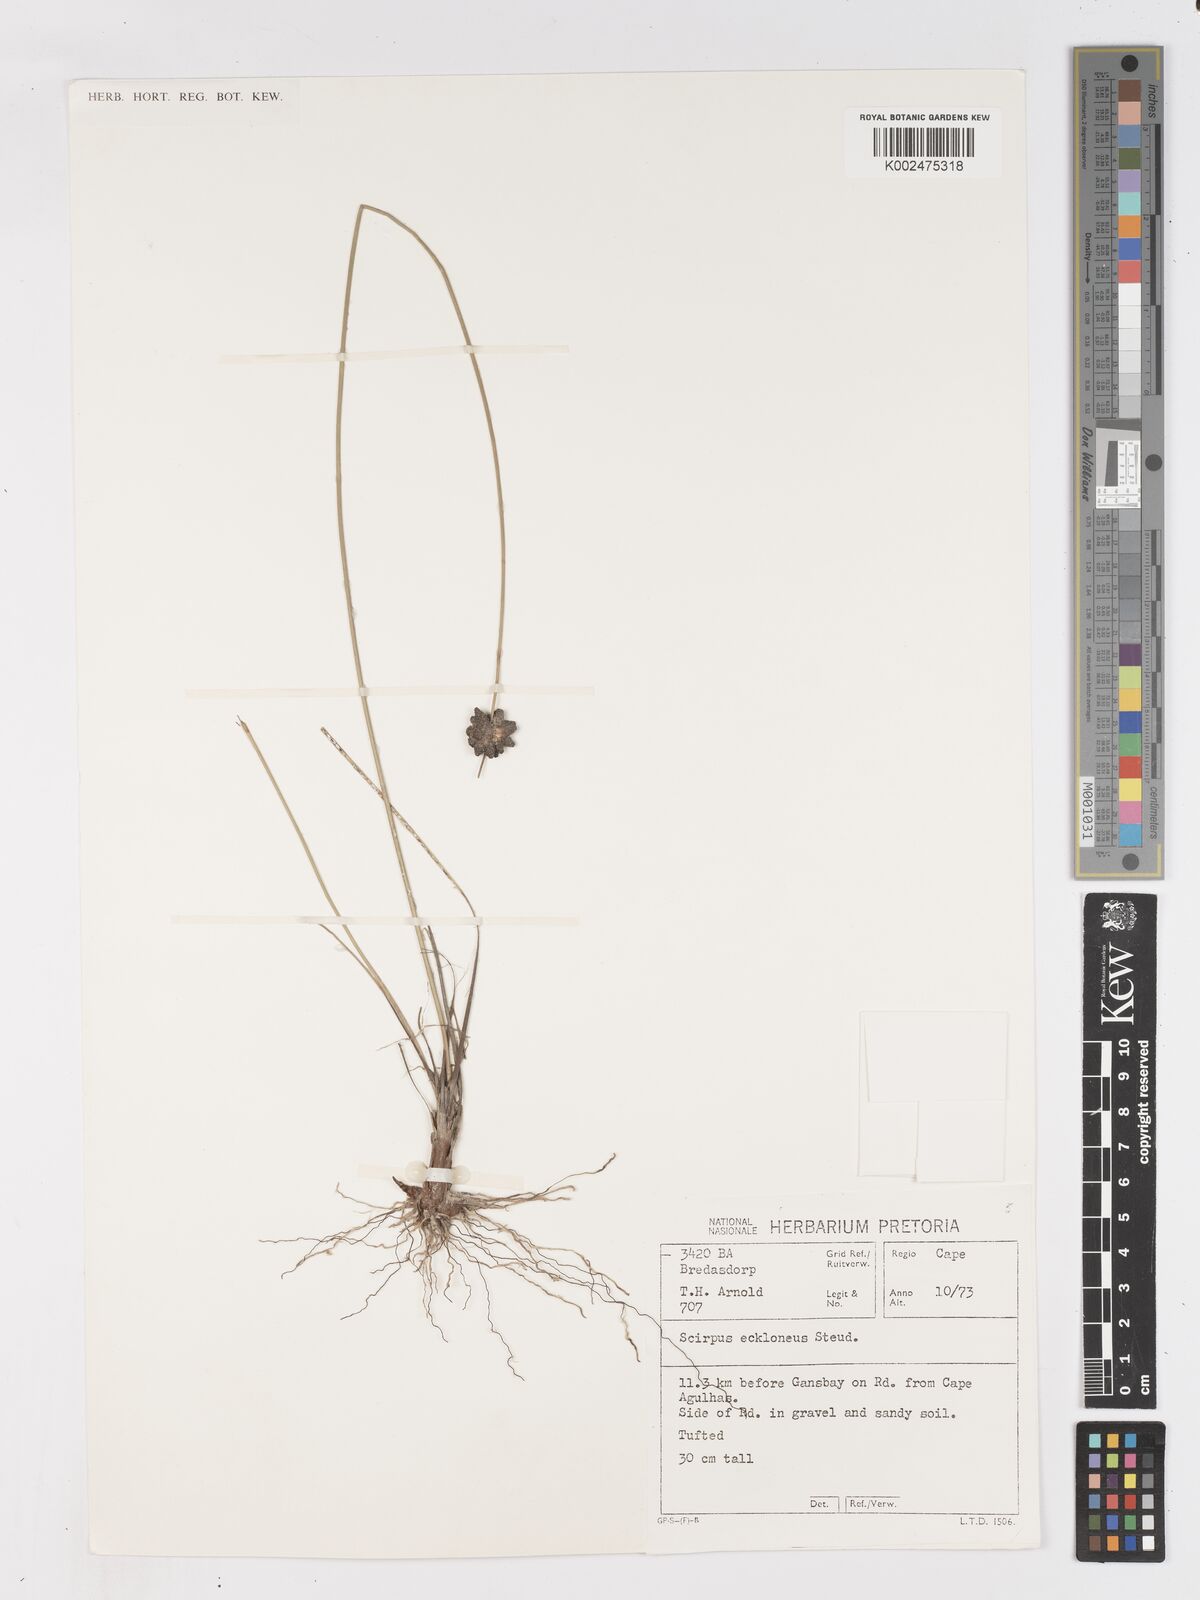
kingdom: Plantae
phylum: Tracheophyta
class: Liliopsida
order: Poales
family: Cyperaceae
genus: Ficinia
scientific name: Ficinia ecklonea
